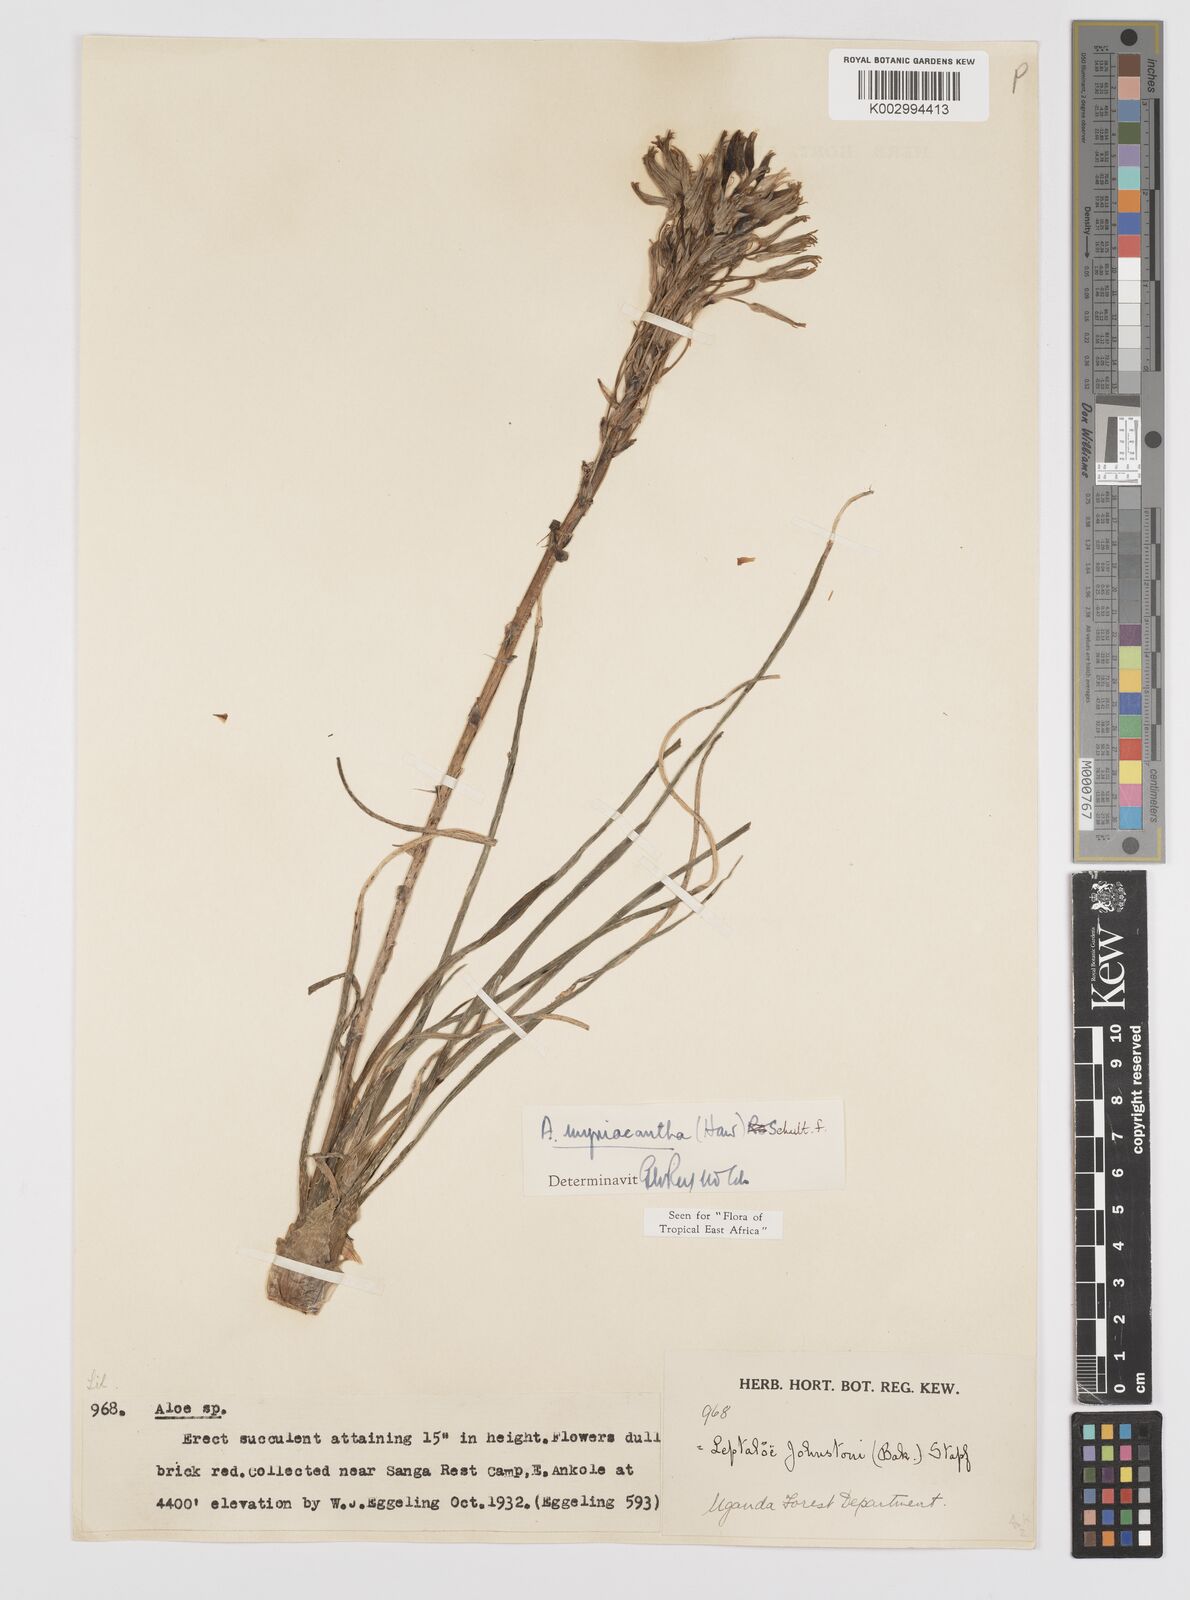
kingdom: Plantae
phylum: Tracheophyta
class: Liliopsida
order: Asparagales
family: Asphodelaceae
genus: Aloe
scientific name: Aloe myriacantha
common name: Grass aloe
